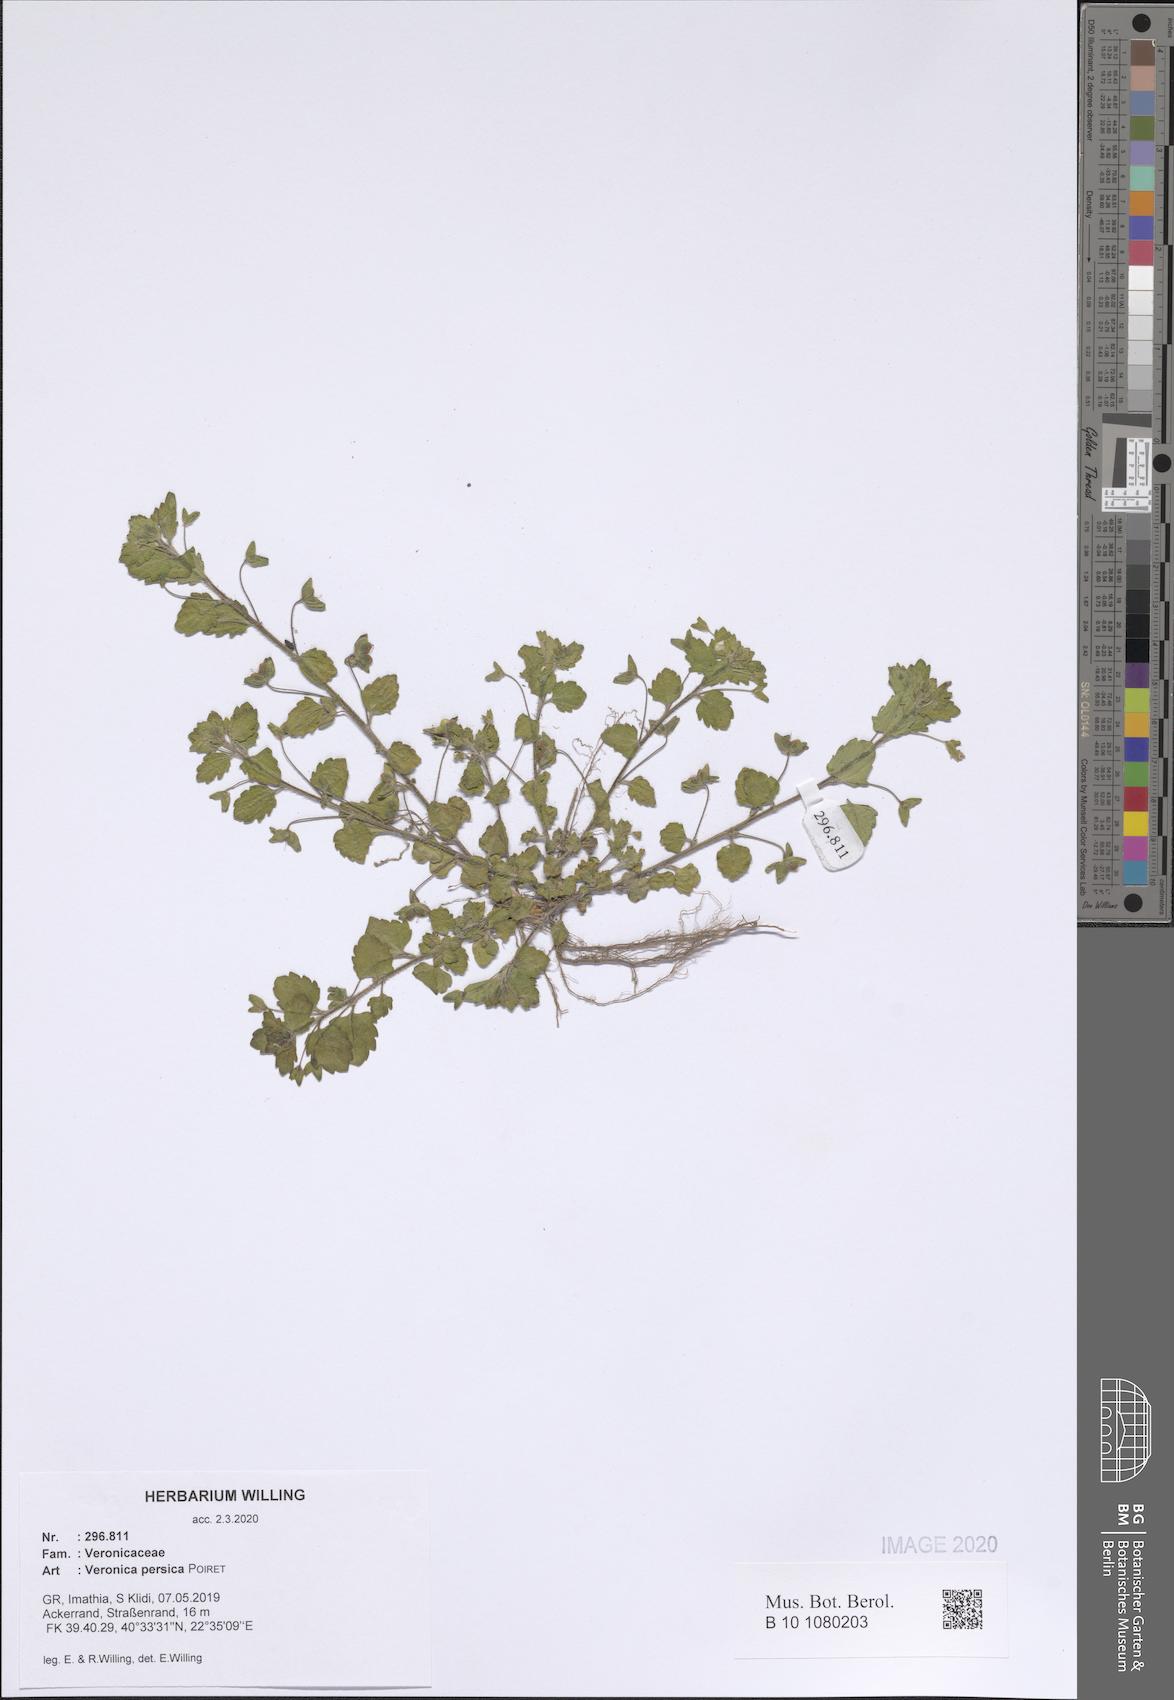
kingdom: Plantae
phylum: Tracheophyta
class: Magnoliopsida
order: Lamiales
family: Plantaginaceae
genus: Veronica
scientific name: Veronica persica
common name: Common field-speedwell
